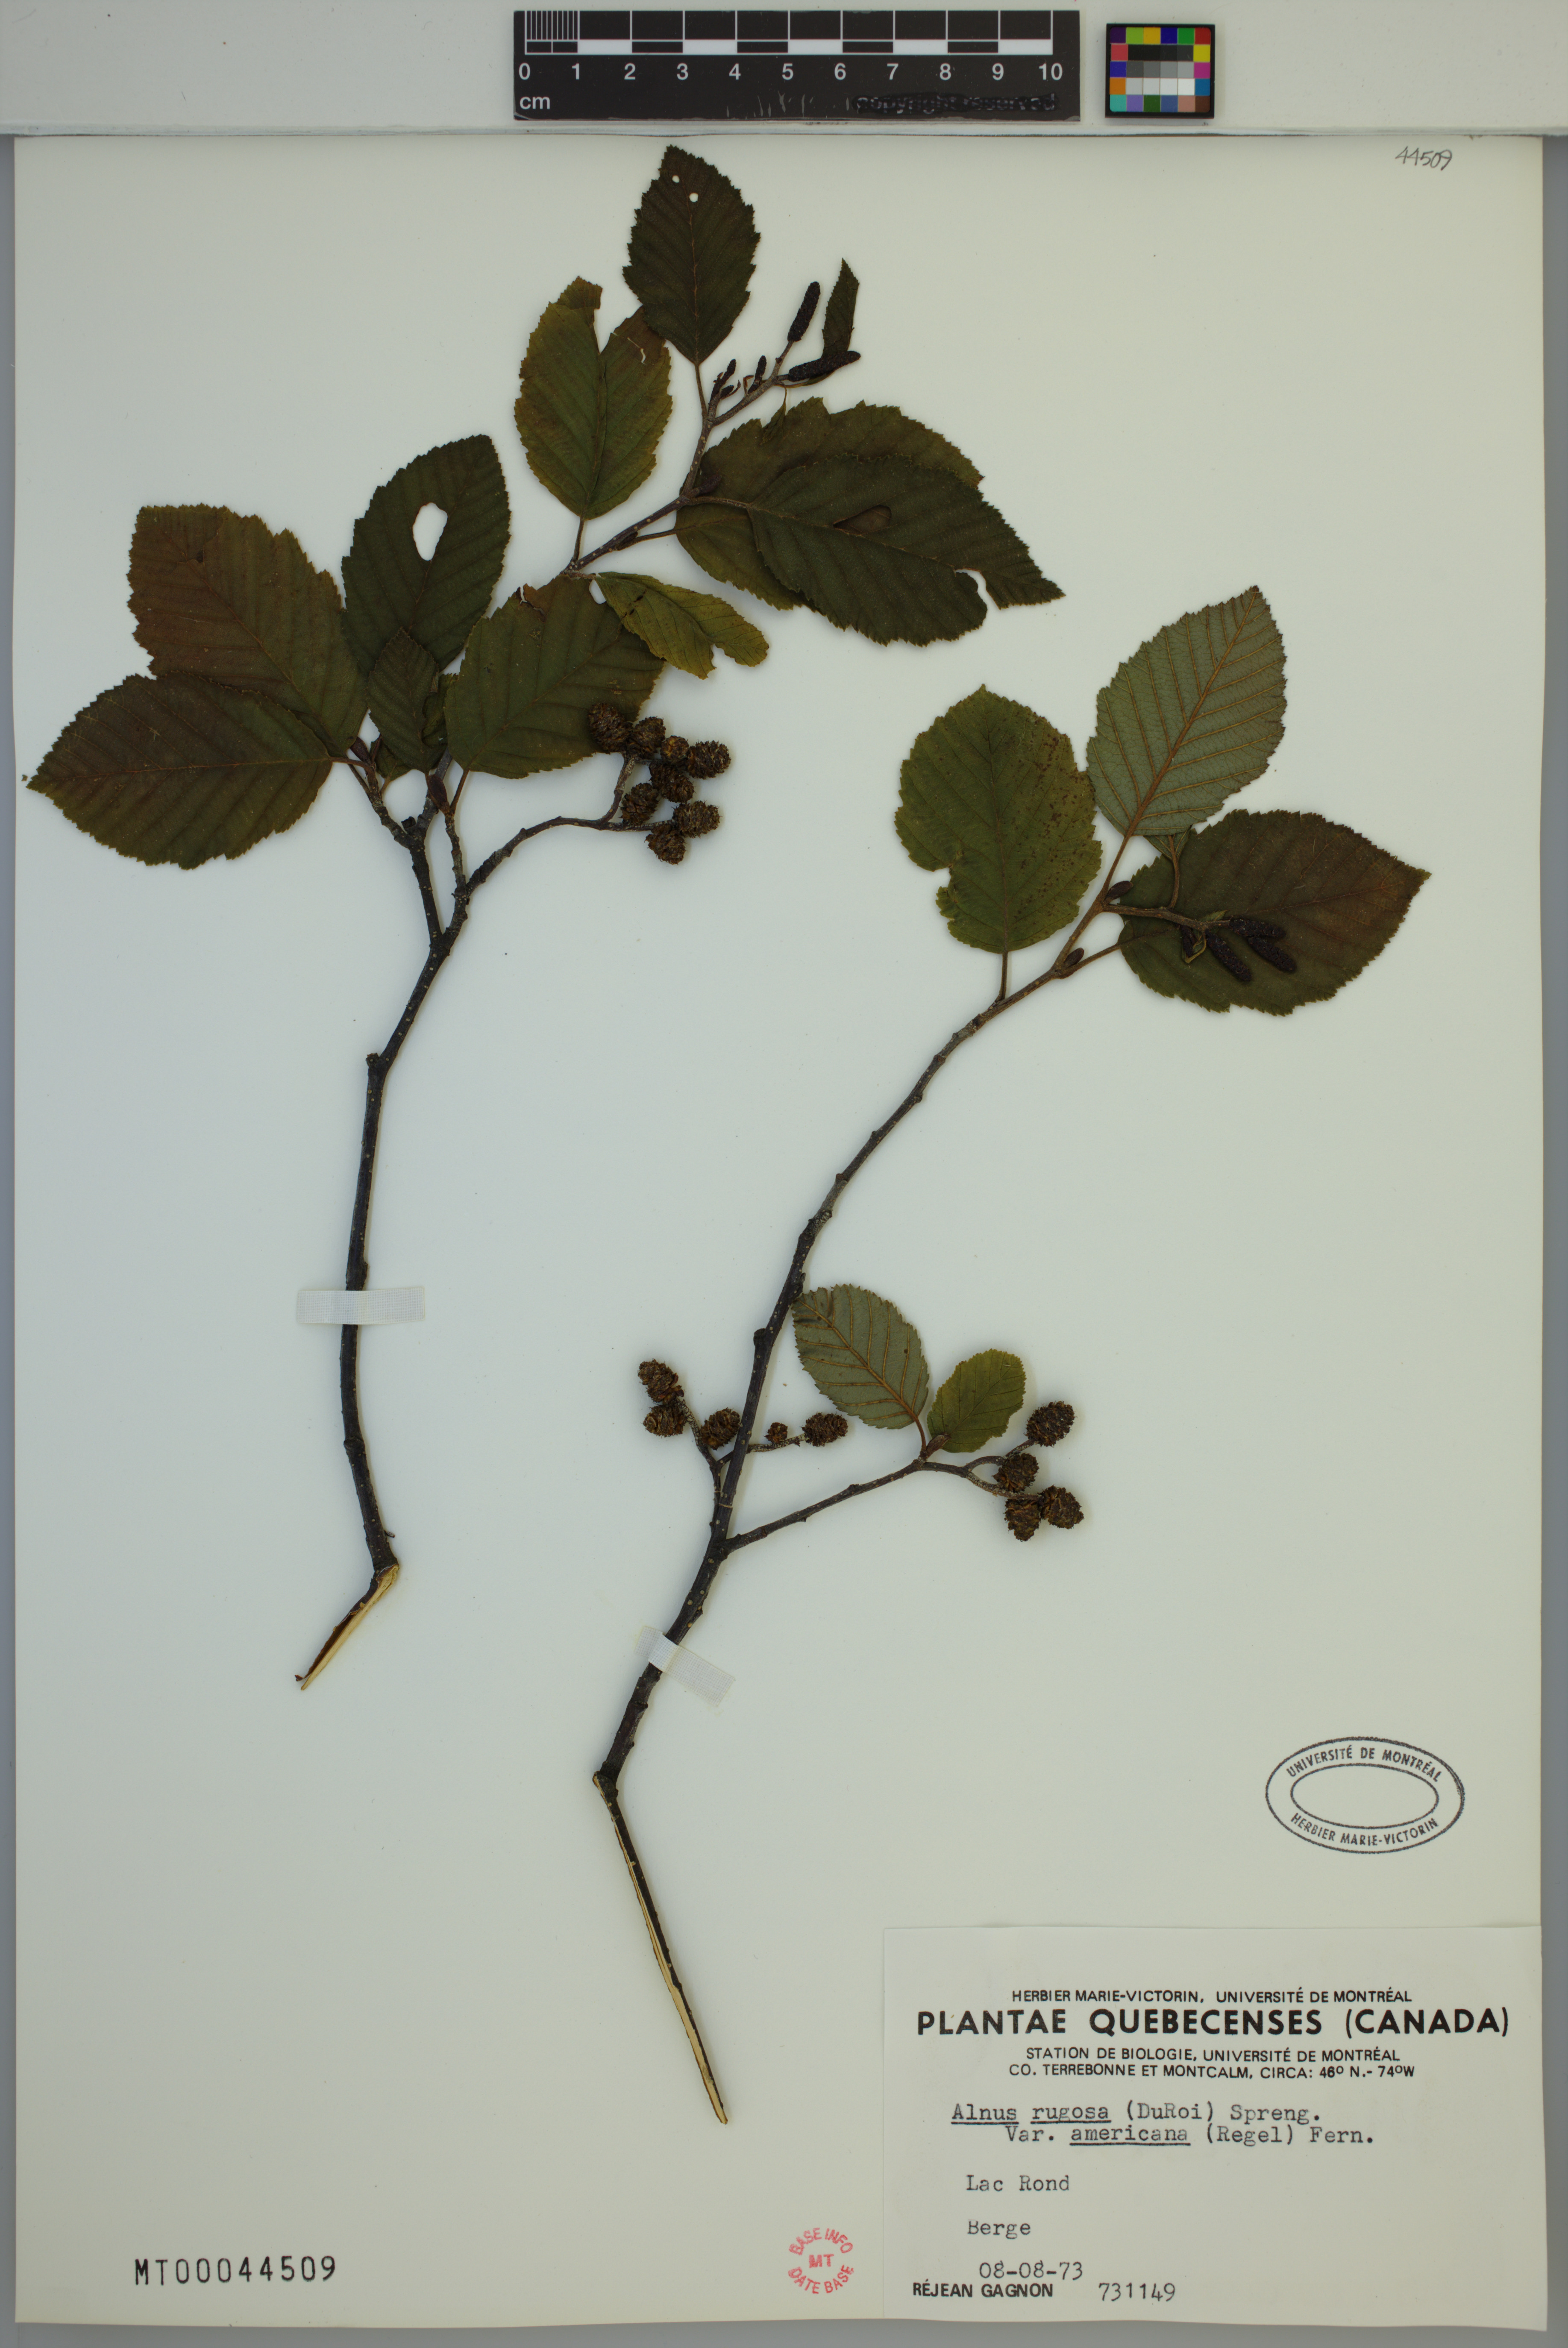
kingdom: Plantae
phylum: Tracheophyta
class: Magnoliopsida
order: Fagales
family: Betulaceae
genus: Alnus
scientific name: Alnus incana
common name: Grey alder
